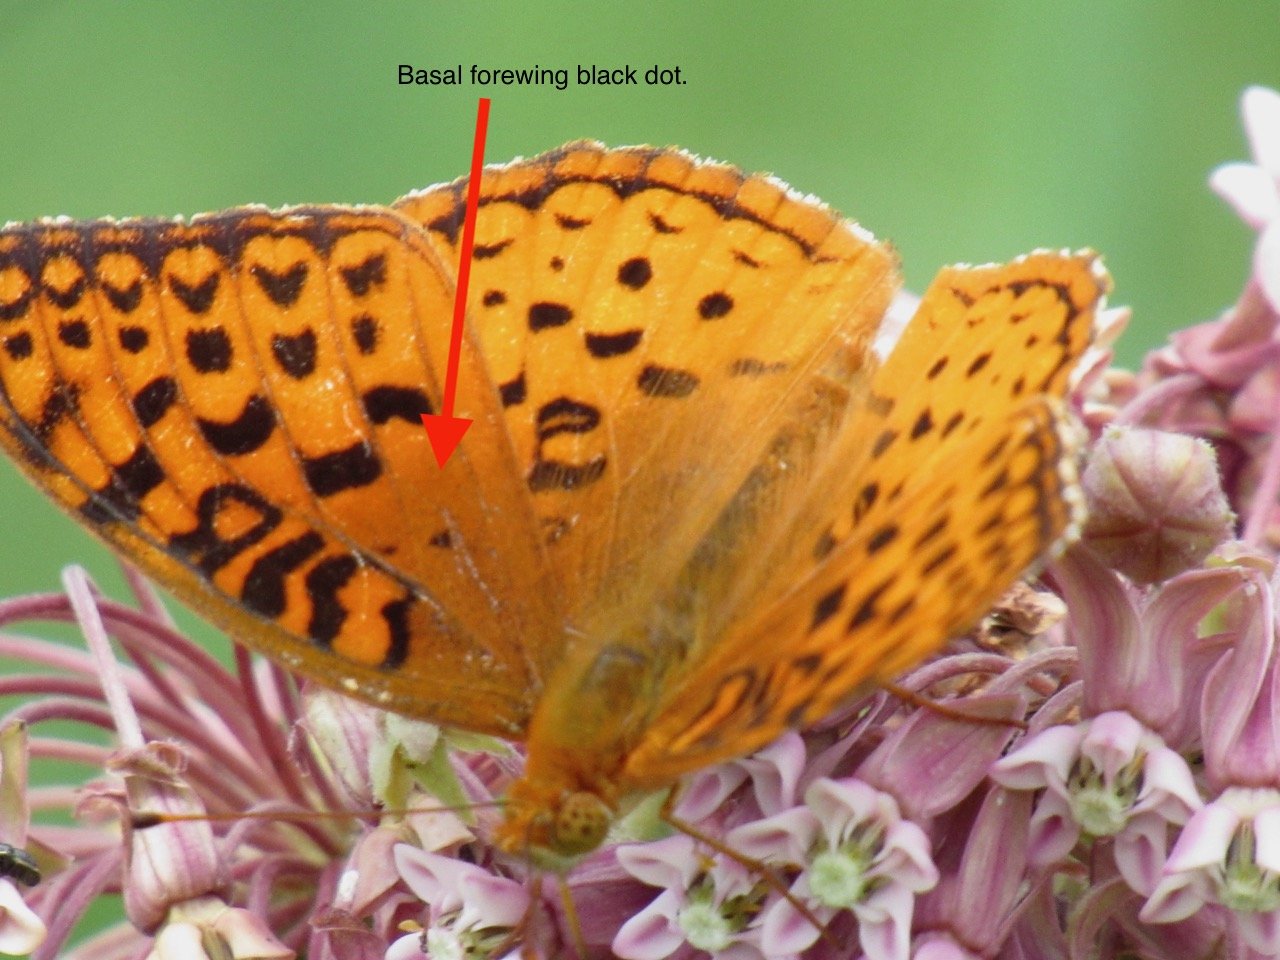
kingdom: Animalia
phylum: Arthropoda
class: Insecta
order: Lepidoptera
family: Nymphalidae
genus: Speyeria
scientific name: Speyeria aphrodite
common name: Aphrodite Fritillary
